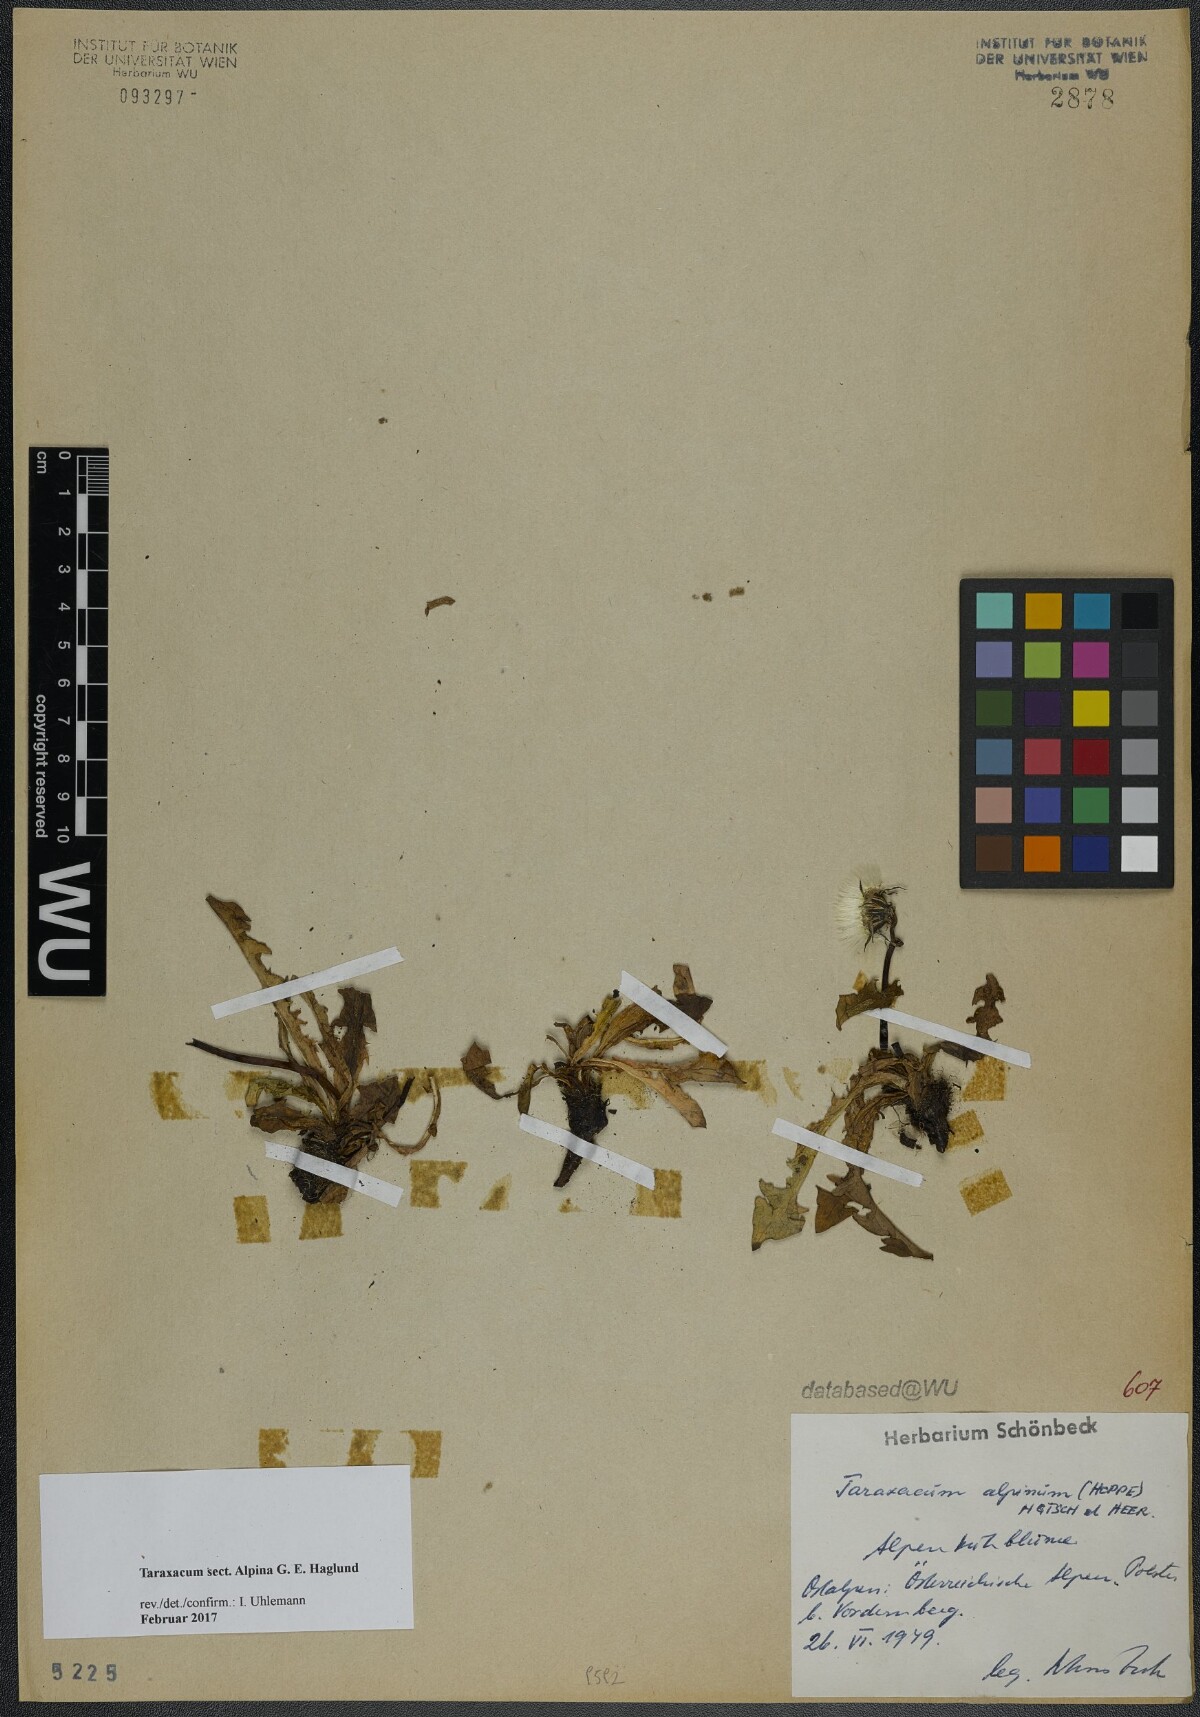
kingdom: Plantae
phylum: Tracheophyta
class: Magnoliopsida
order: Asterales
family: Asteraceae
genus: Taraxacum
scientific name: Taraxacum
